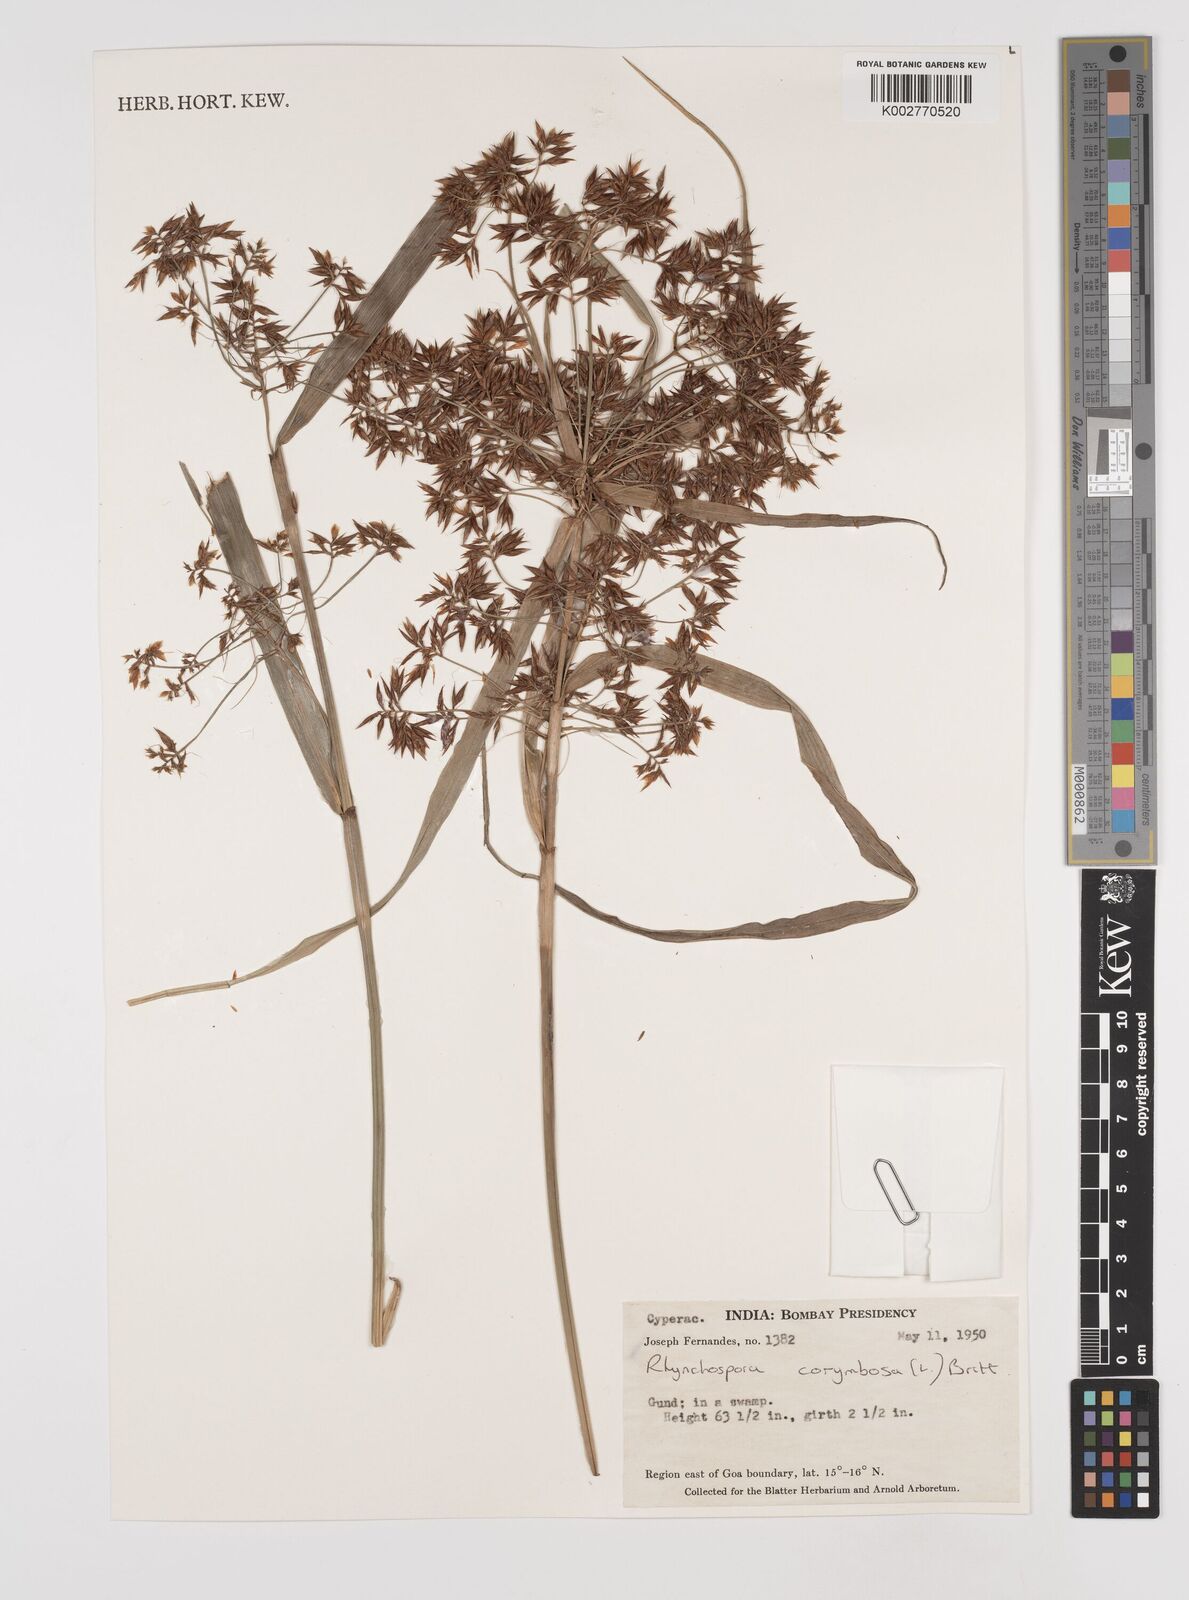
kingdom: Plantae
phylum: Tracheophyta
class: Liliopsida
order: Poales
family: Cyperaceae
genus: Rhynchospora
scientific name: Rhynchospora corymbosa
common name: Golden beak sedge
